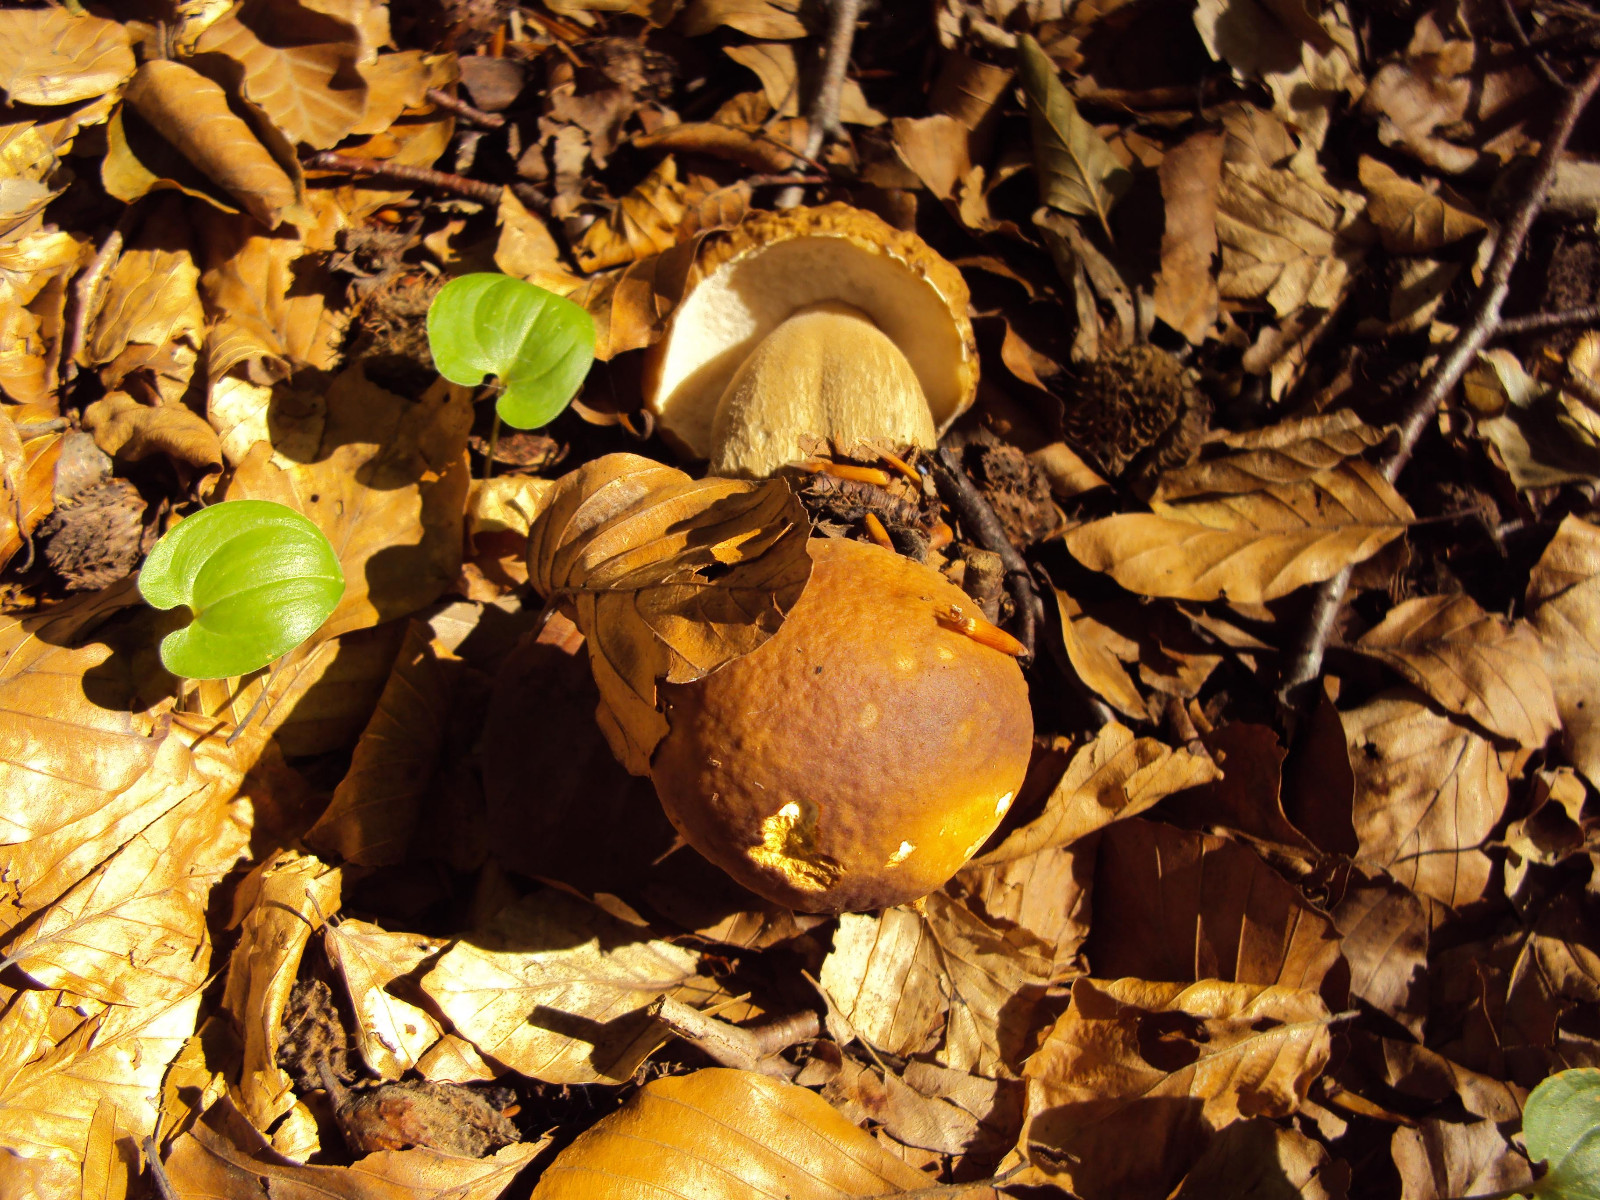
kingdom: Fungi
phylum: Basidiomycota
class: Agaricomycetes
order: Boletales
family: Boletaceae
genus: Boletus
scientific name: Boletus edulis
